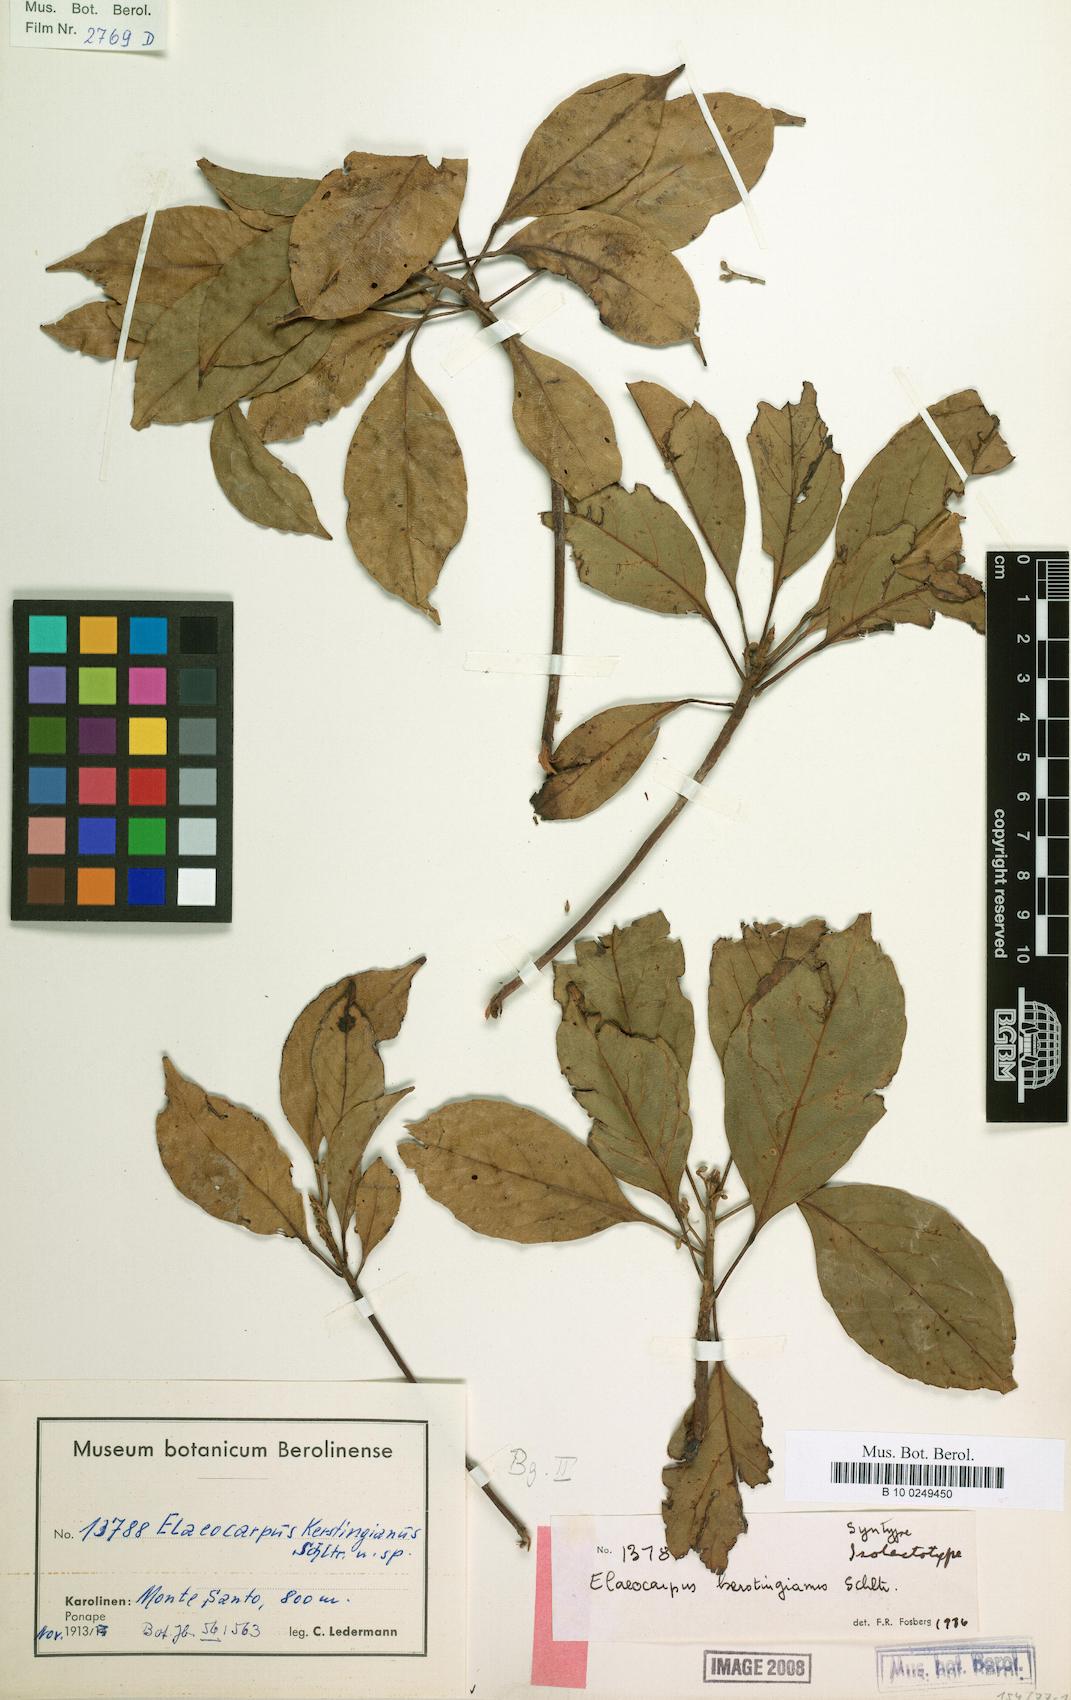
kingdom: Plantae
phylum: Tracheophyta
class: Magnoliopsida
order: Oxalidales
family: Elaeocarpaceae
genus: Elaeocarpus
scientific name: Elaeocarpus kerstingianus
